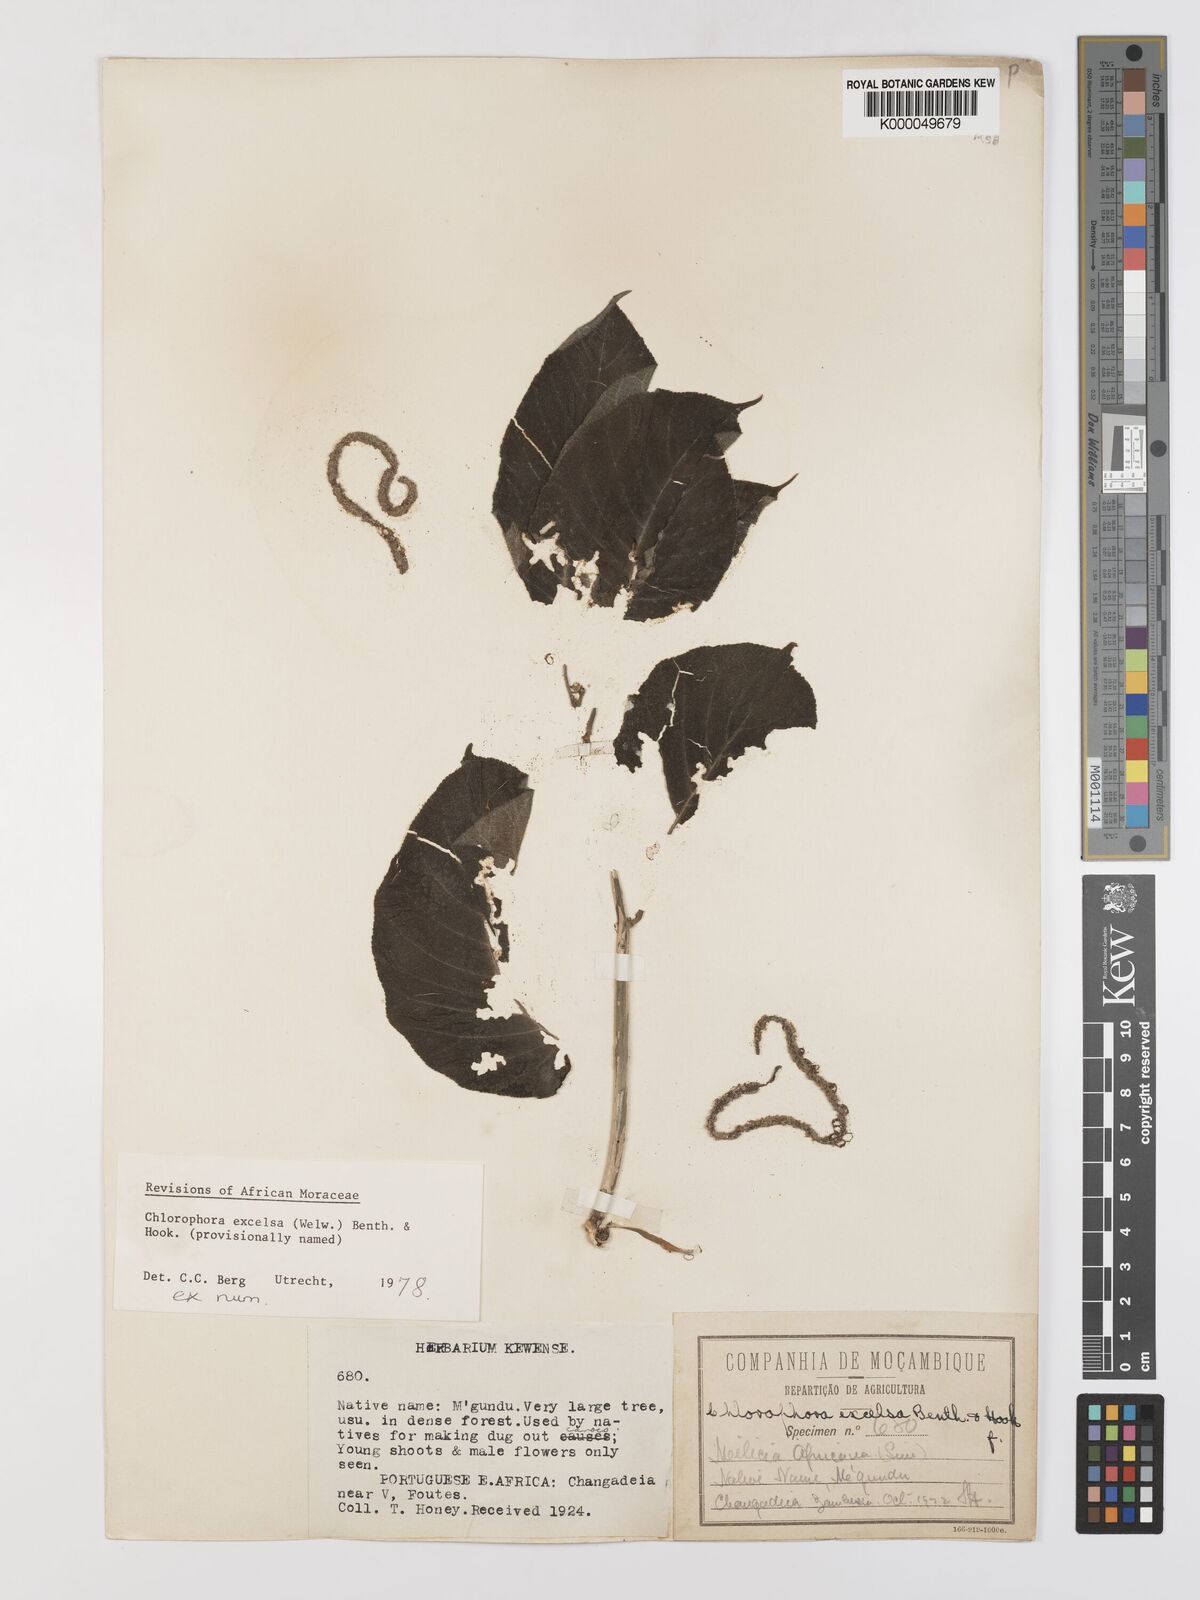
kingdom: Plantae
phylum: Tracheophyta
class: Magnoliopsida
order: Rosales
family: Moraceae
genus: Milicia
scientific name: Milicia excelsa
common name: African teak
